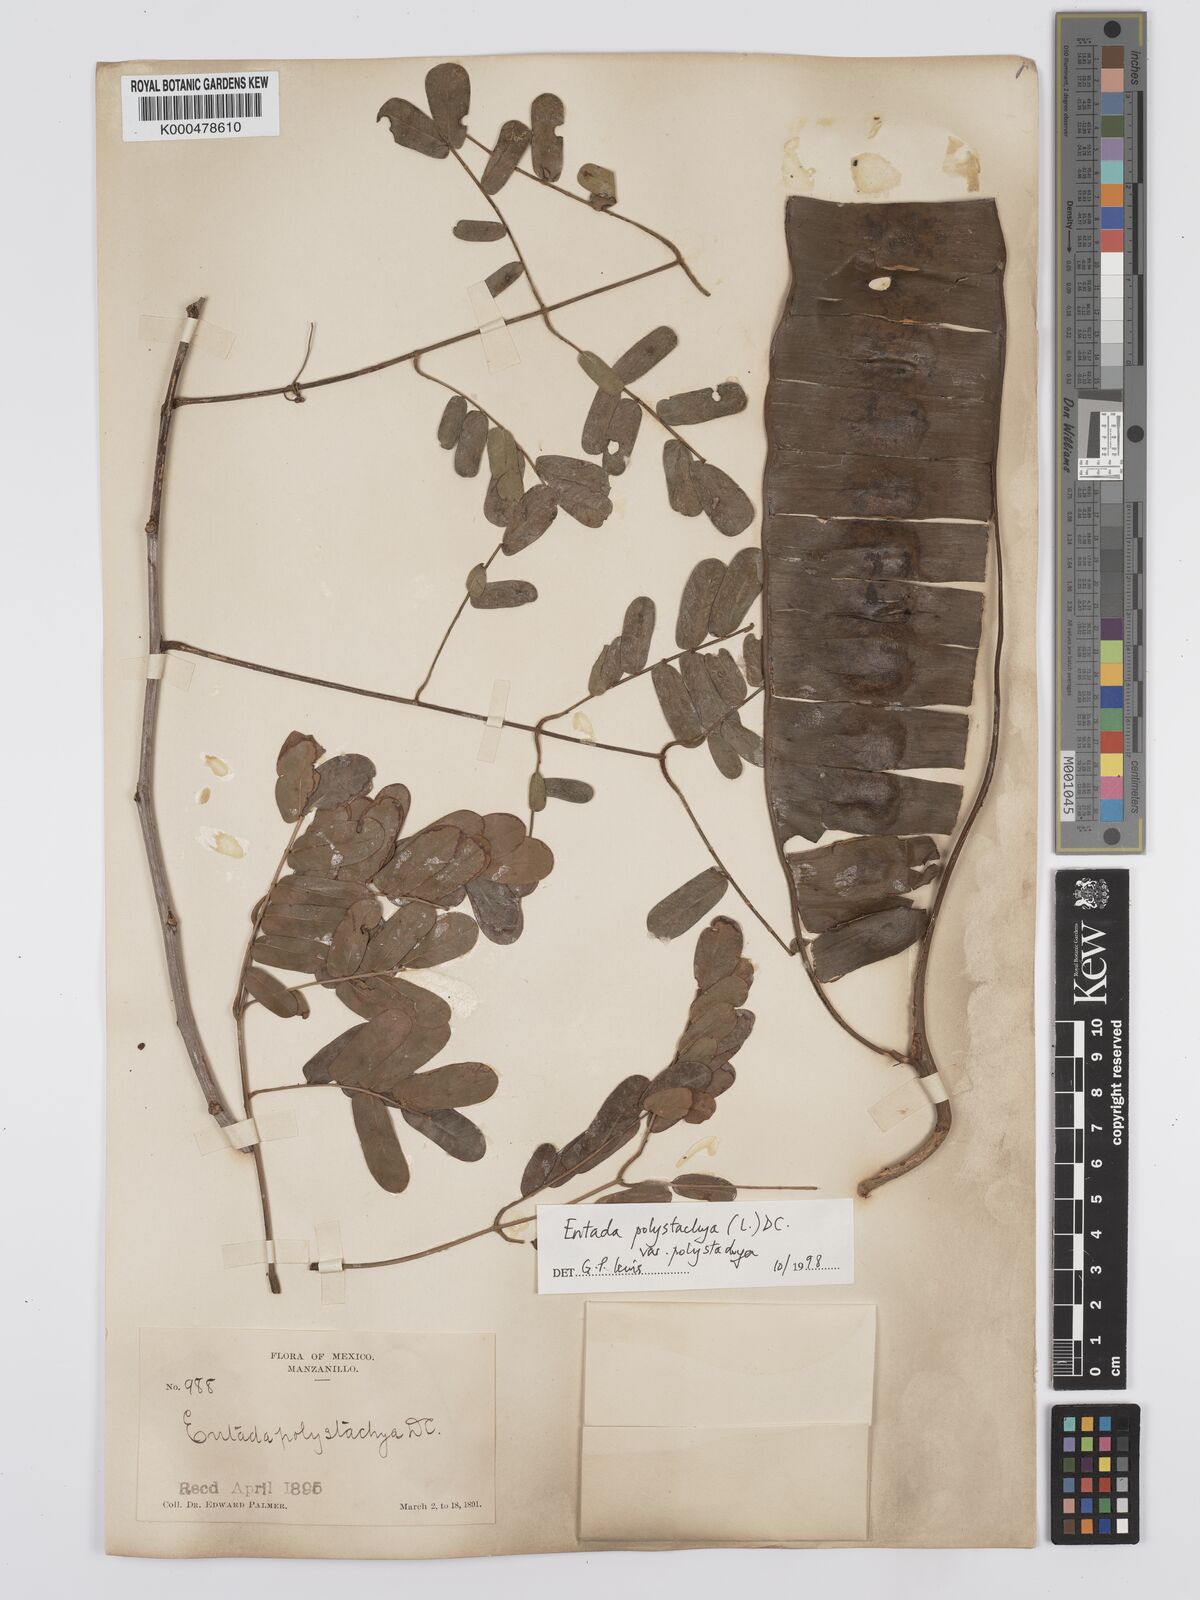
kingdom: Plantae
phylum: Tracheophyta
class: Magnoliopsida
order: Fabales
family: Fabaceae
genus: Entada
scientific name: Entada polystachya
